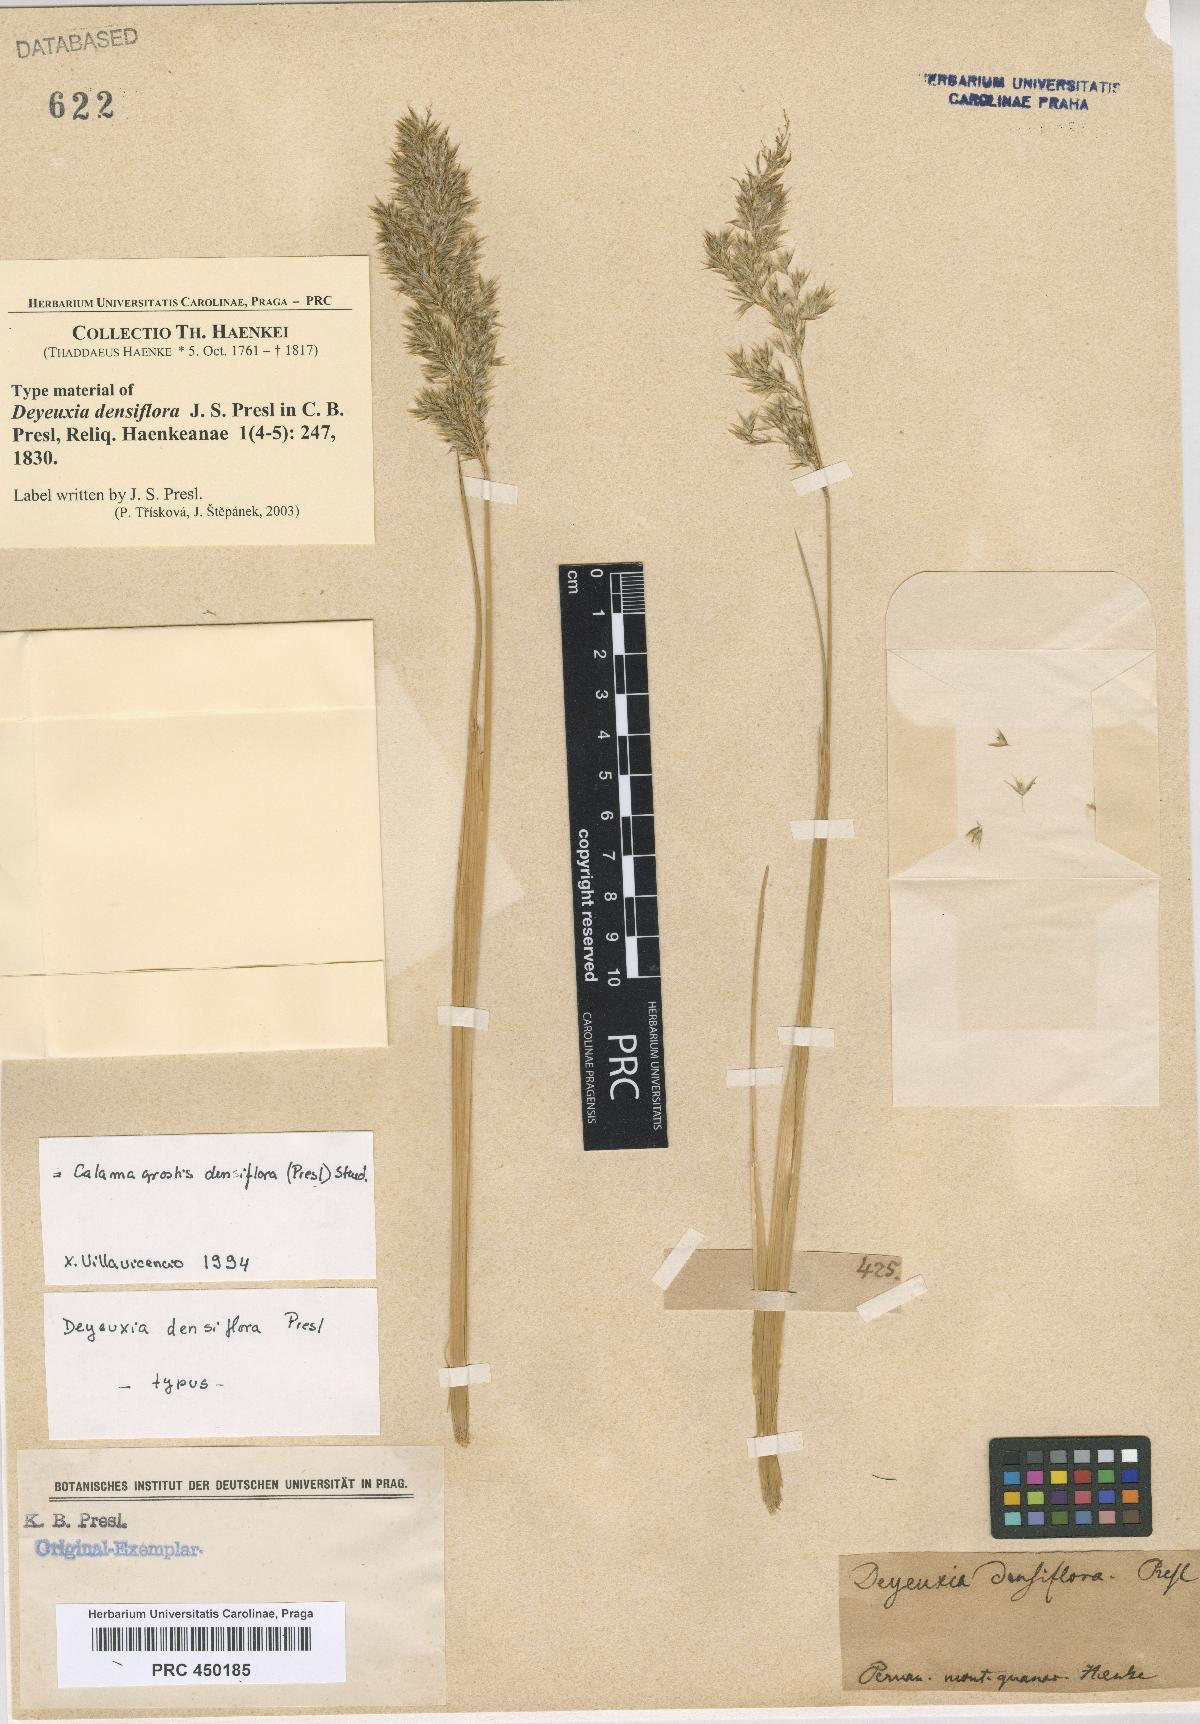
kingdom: Plantae
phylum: Tracheophyta
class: Liliopsida
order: Poales
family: Poaceae
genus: Cinnagrostis
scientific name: Cinnagrostis densiflora
